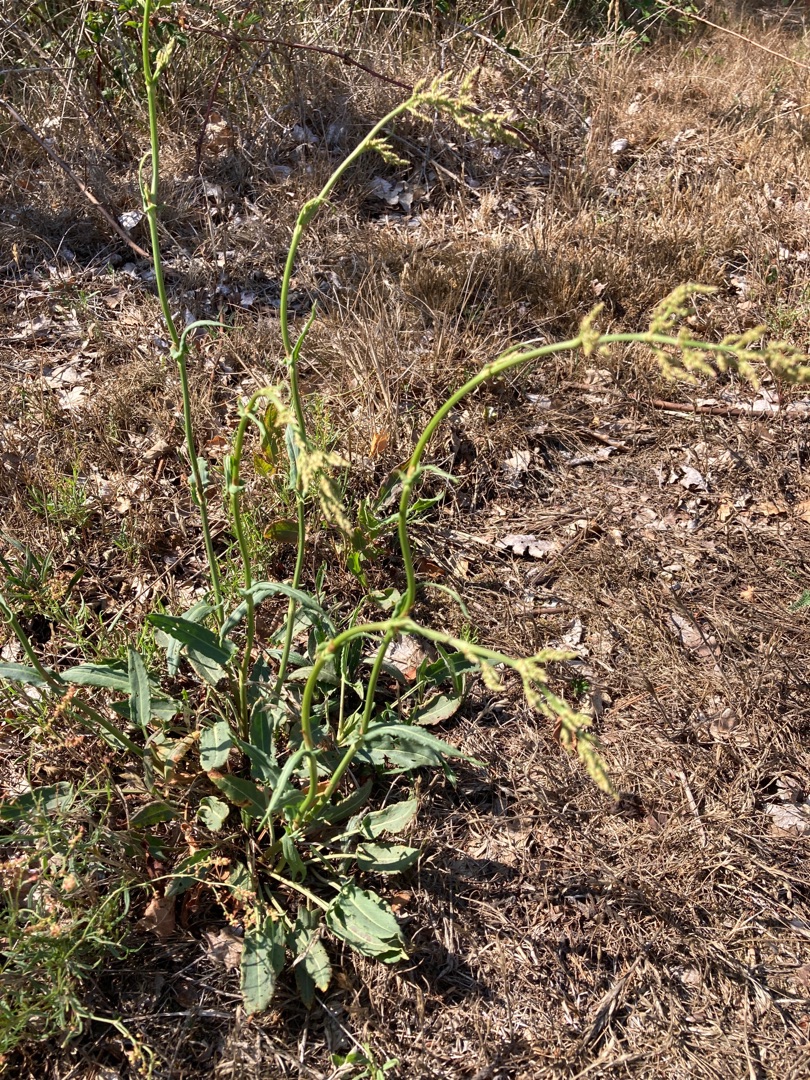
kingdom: Plantae
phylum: Tracheophyta
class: Magnoliopsida
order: Caryophyllales
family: Polygonaceae
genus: Rumex
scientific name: Rumex thyrsiflorus
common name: Dusk-syre
